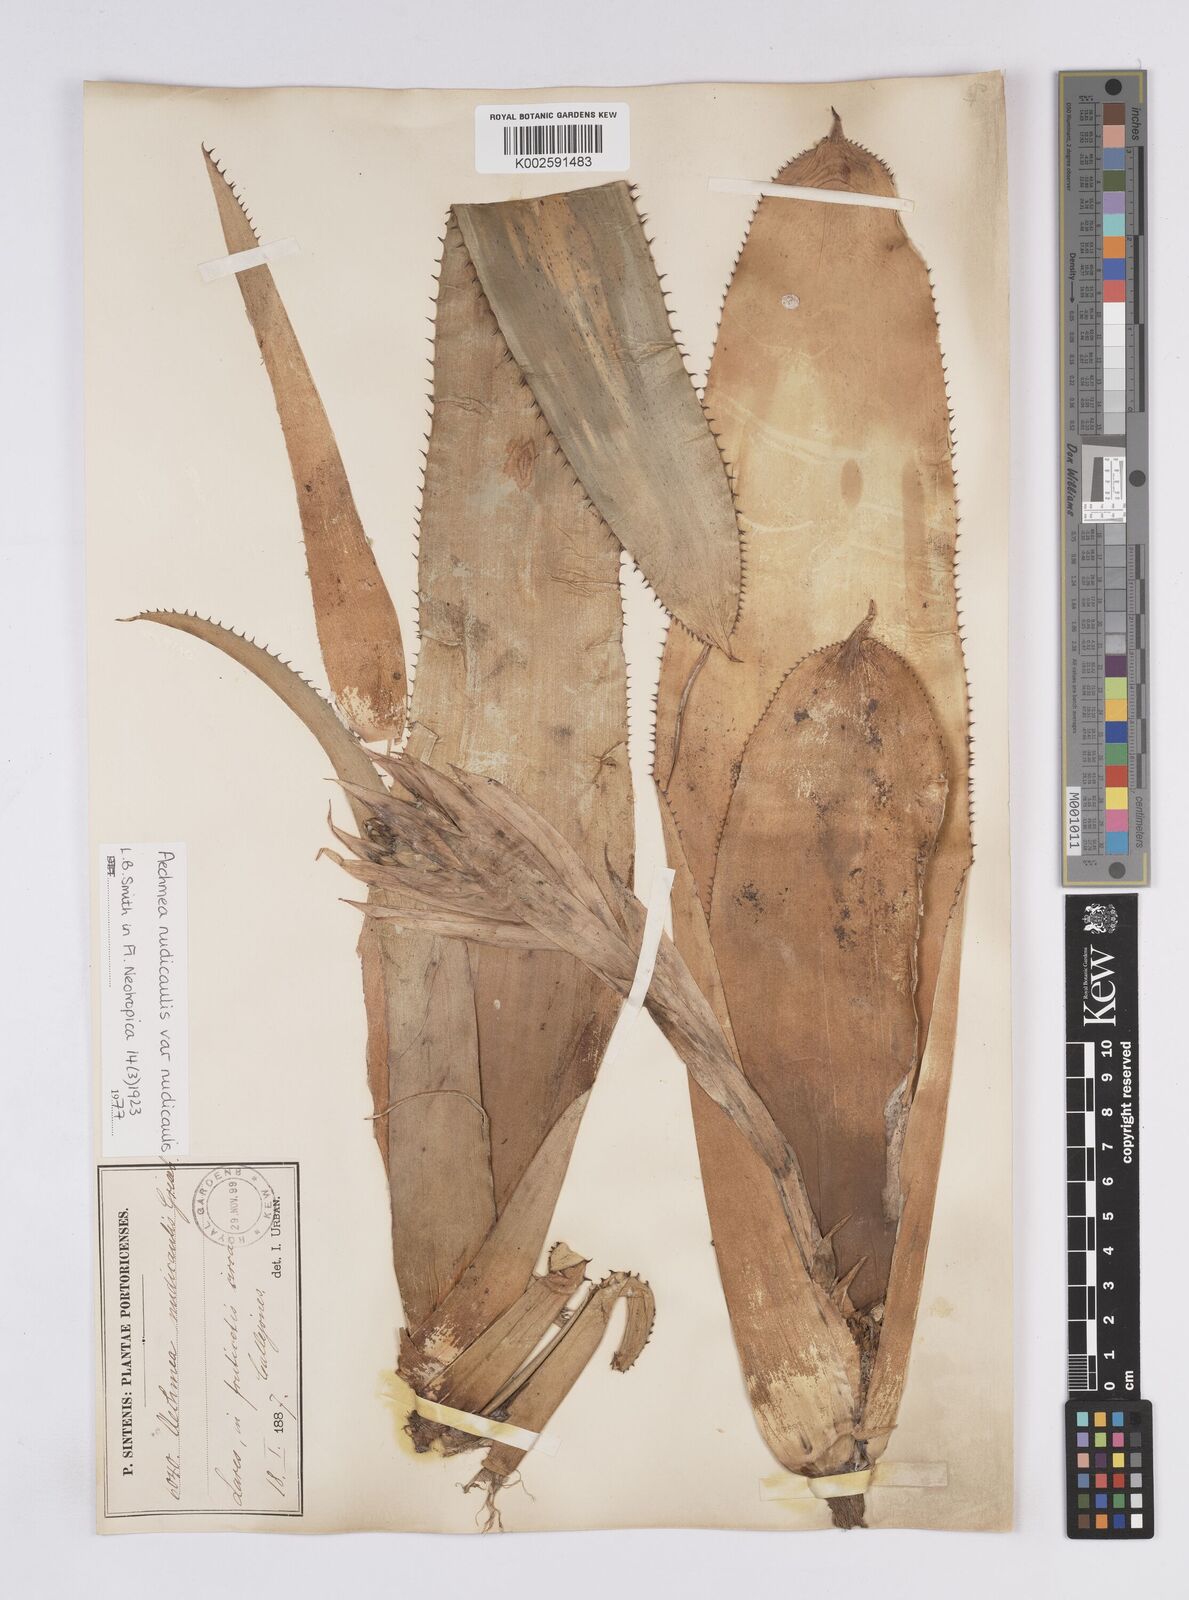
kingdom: Plantae
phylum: Tracheophyta
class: Liliopsida
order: Poales
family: Bromeliaceae
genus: Aechmea
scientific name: Aechmea nudicaulis
